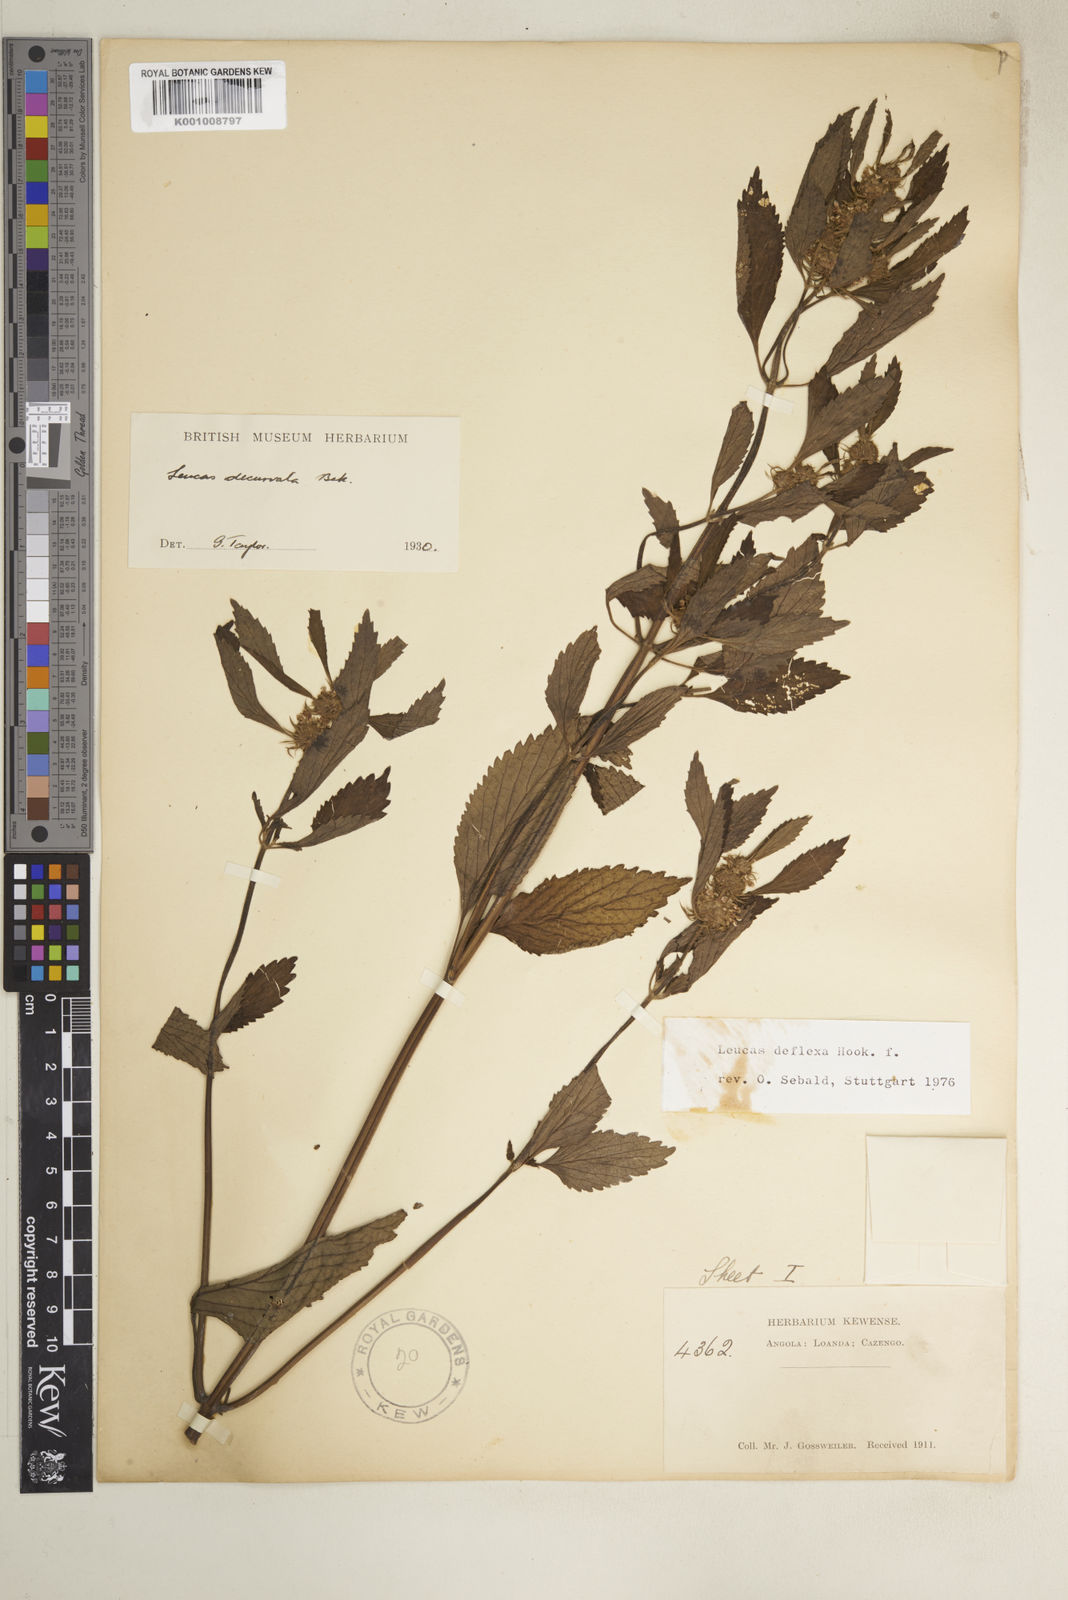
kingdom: Plantae
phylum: Tracheophyta
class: Magnoliopsida
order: Lamiales
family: Lamiaceae
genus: Leucas
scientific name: Leucas deflexa
